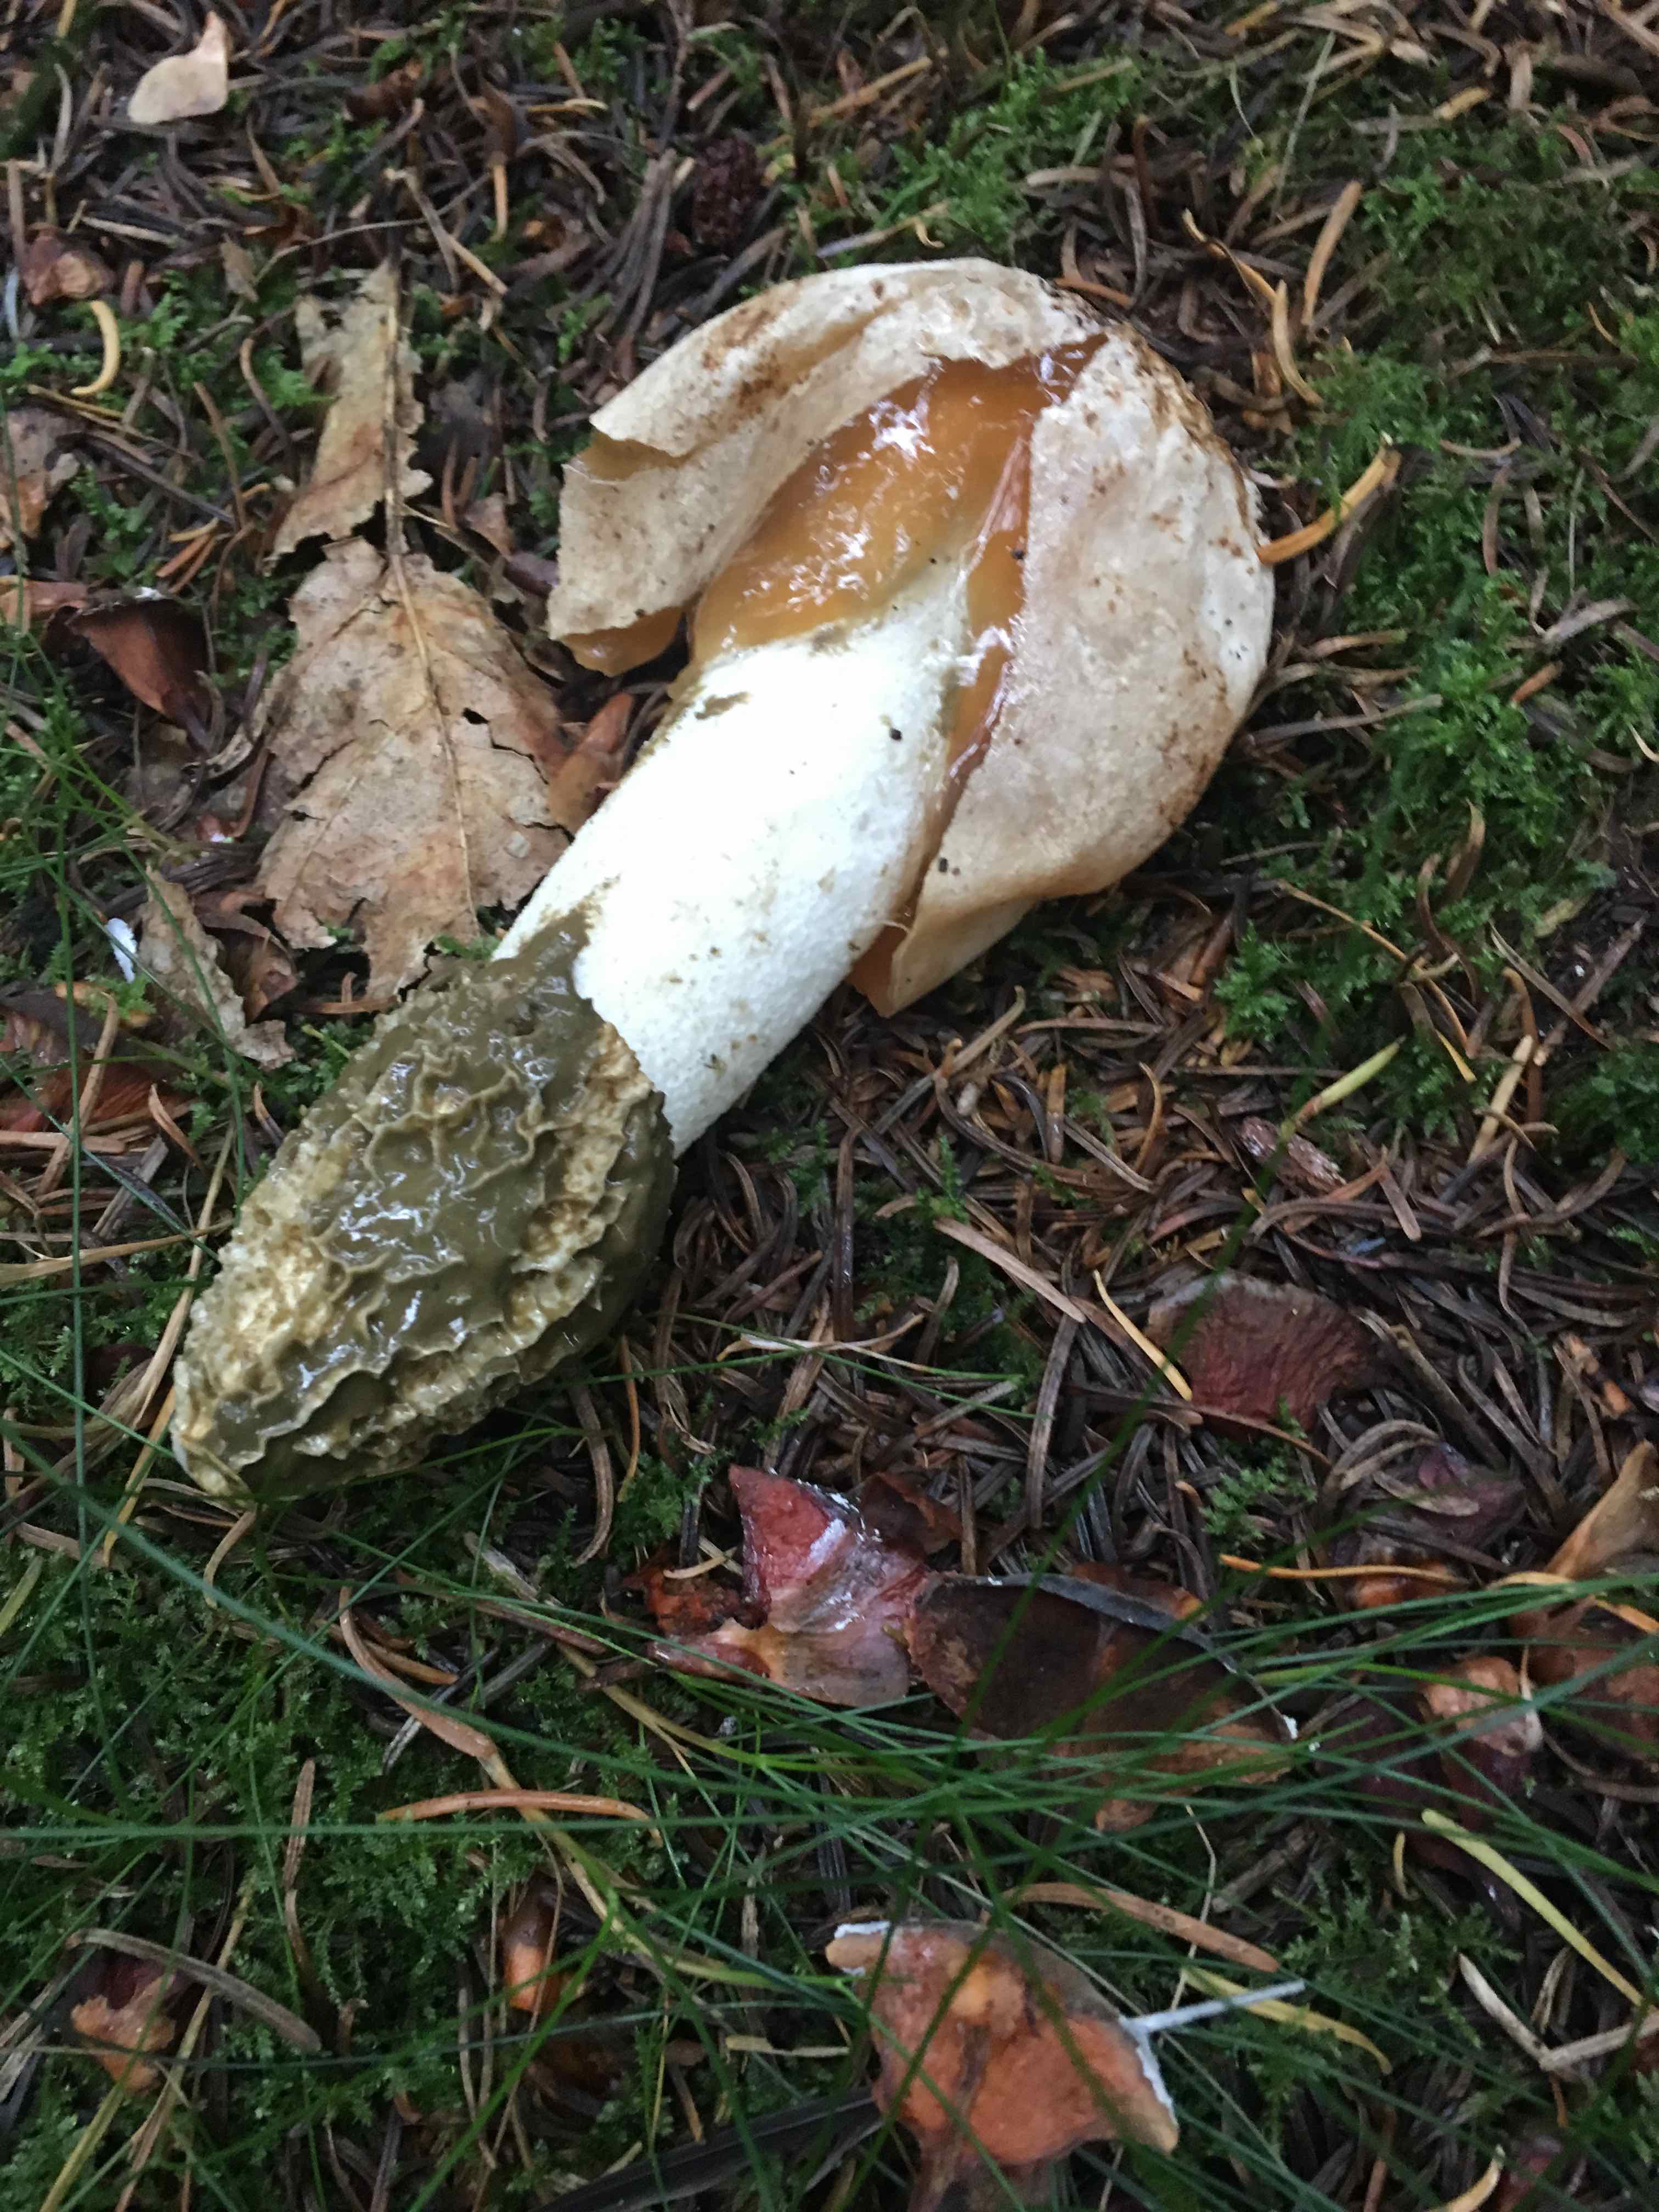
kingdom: Fungi
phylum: Basidiomycota
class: Agaricomycetes
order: Phallales
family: Phallaceae
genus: Phallus
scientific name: Phallus impudicus
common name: almindelig stinksvamp
